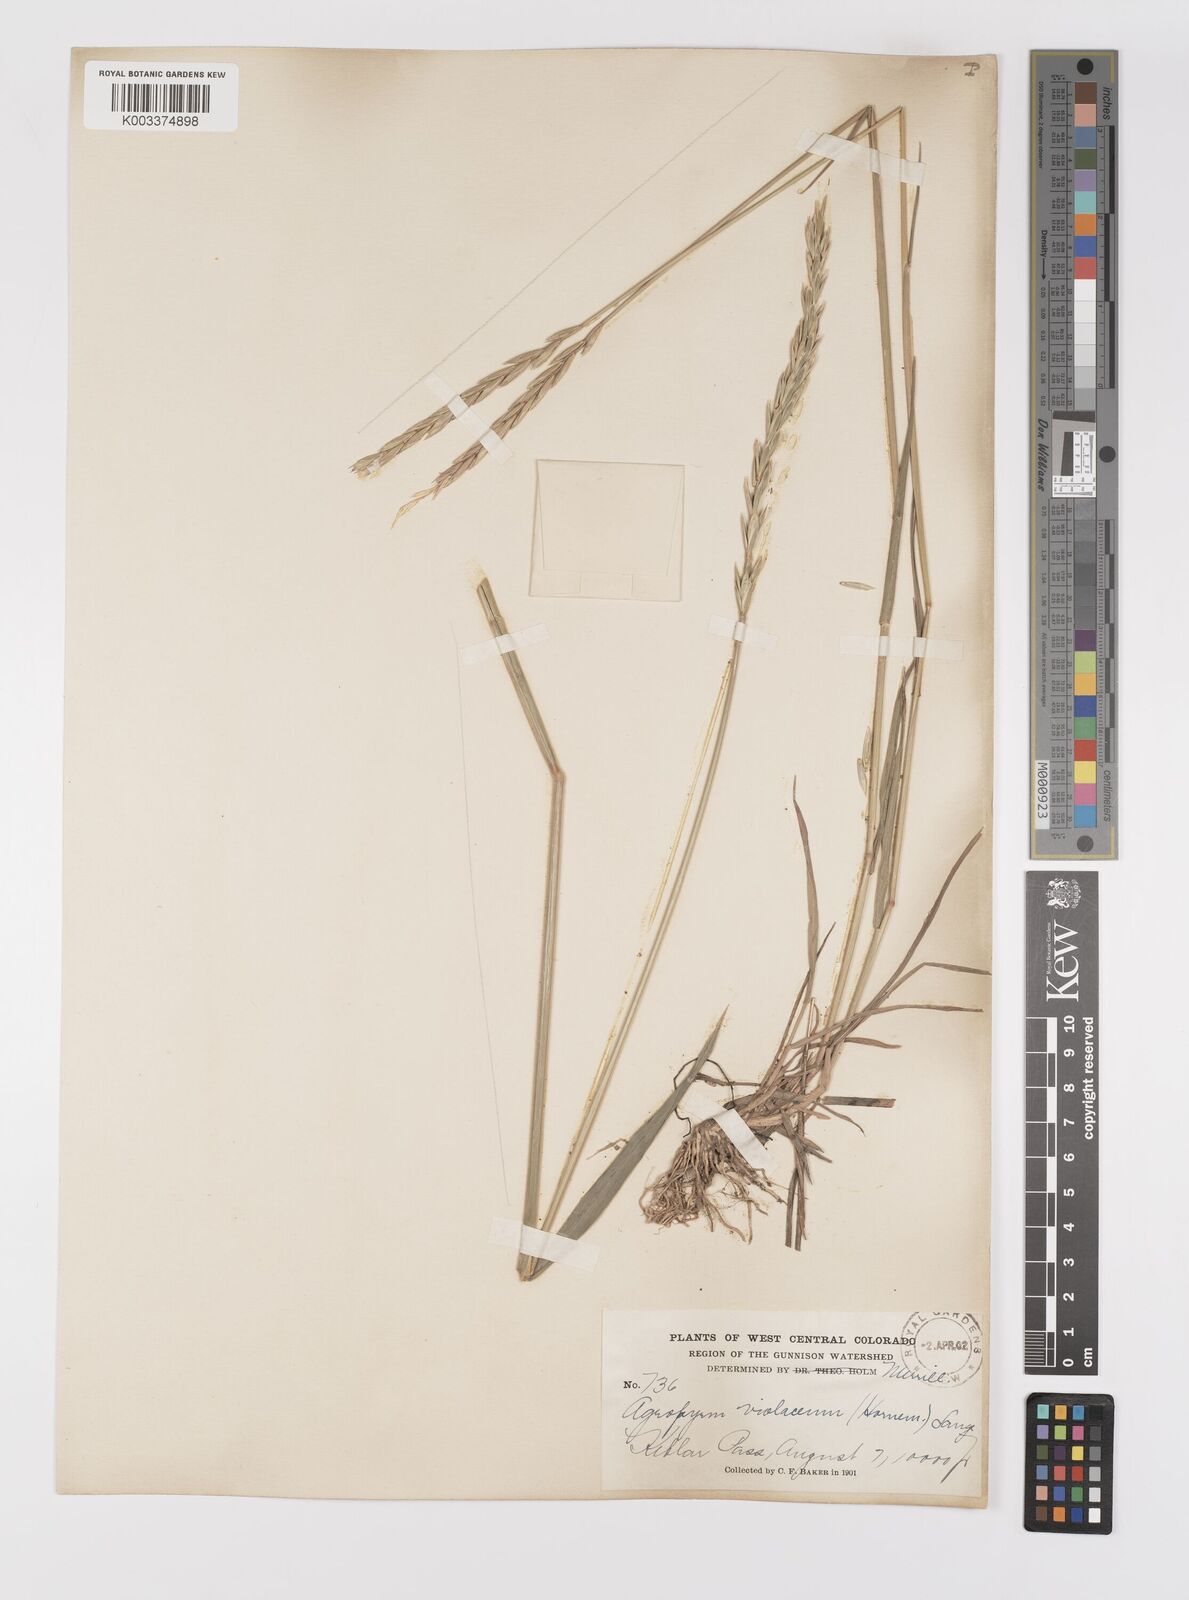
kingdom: Plantae
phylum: Tracheophyta
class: Liliopsida
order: Poales
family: Poaceae
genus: Elymus
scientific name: Elymus violaceus
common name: Arctic wheatgrass
